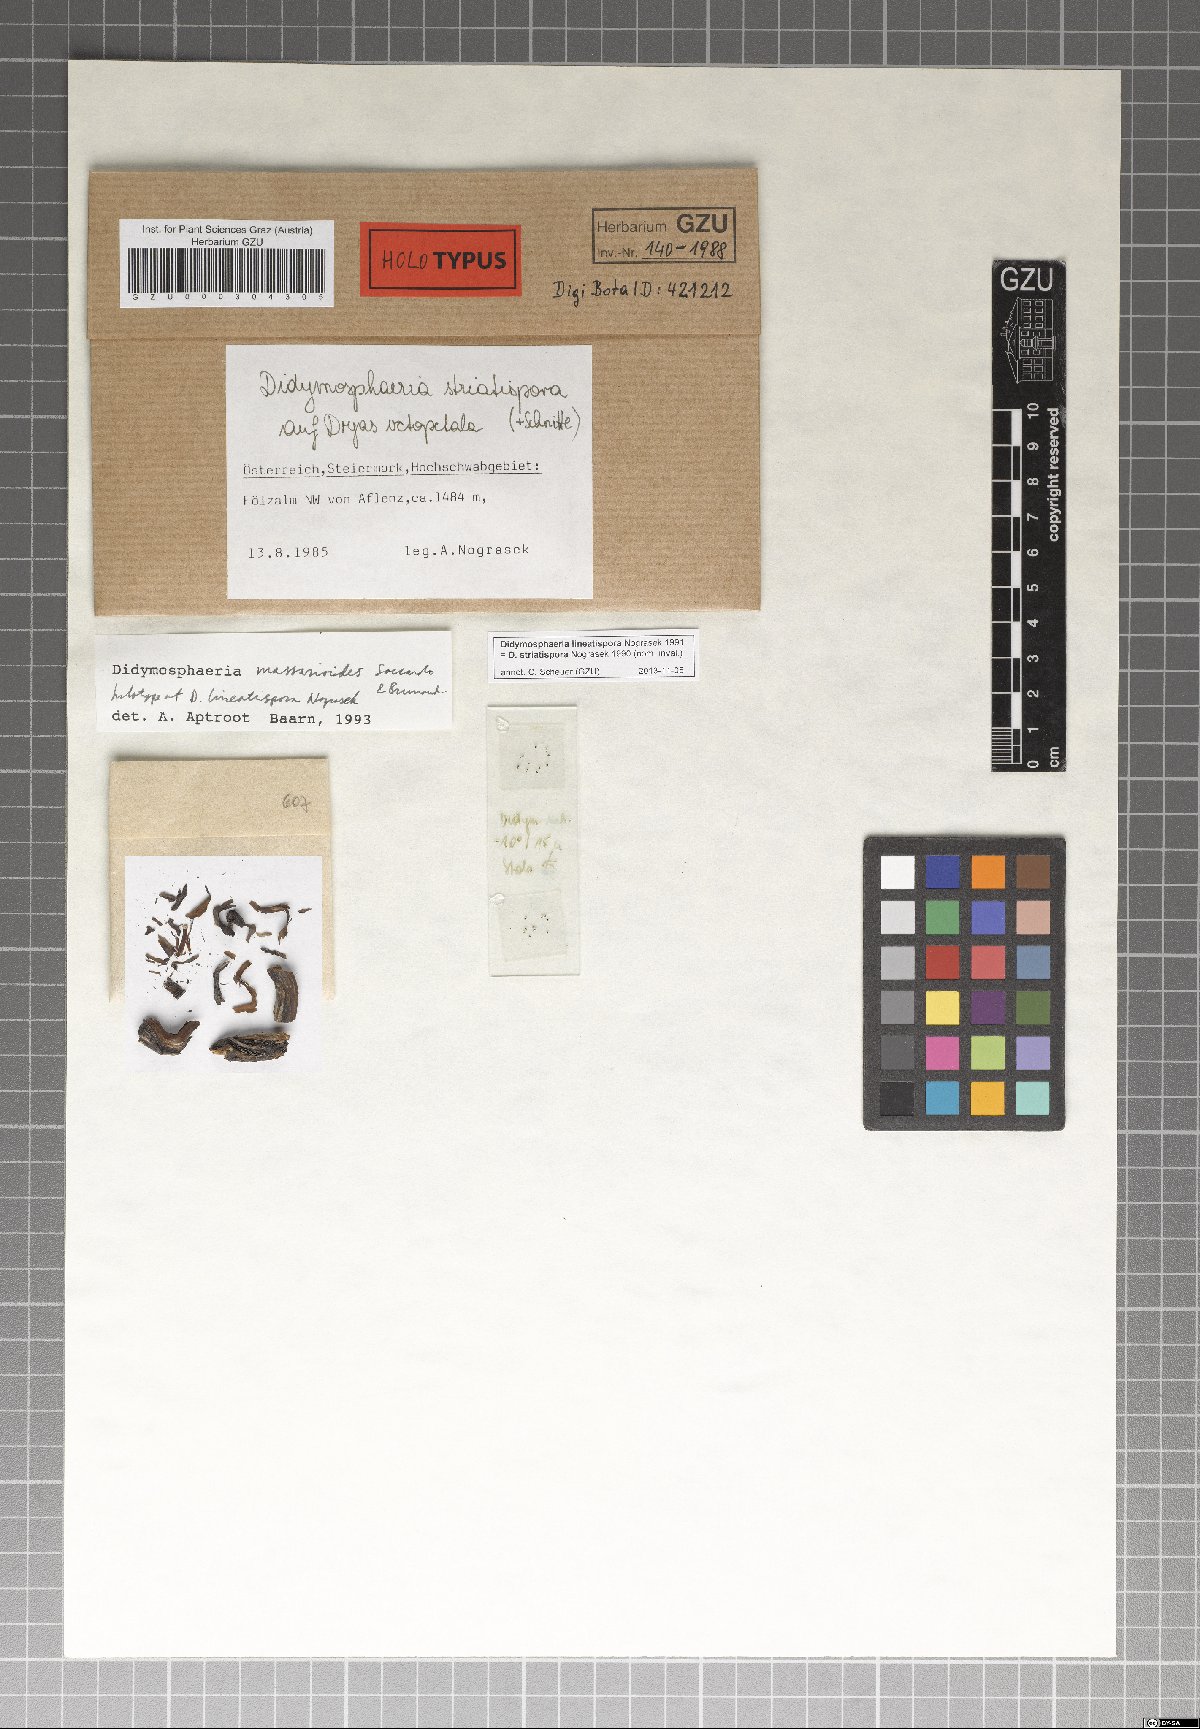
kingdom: Fungi
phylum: Ascomycota
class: Dothideomycetes
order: Pleosporales
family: Didymosphaeriaceae
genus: Didymosphaeria
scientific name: Didymosphaeria lineatispora
